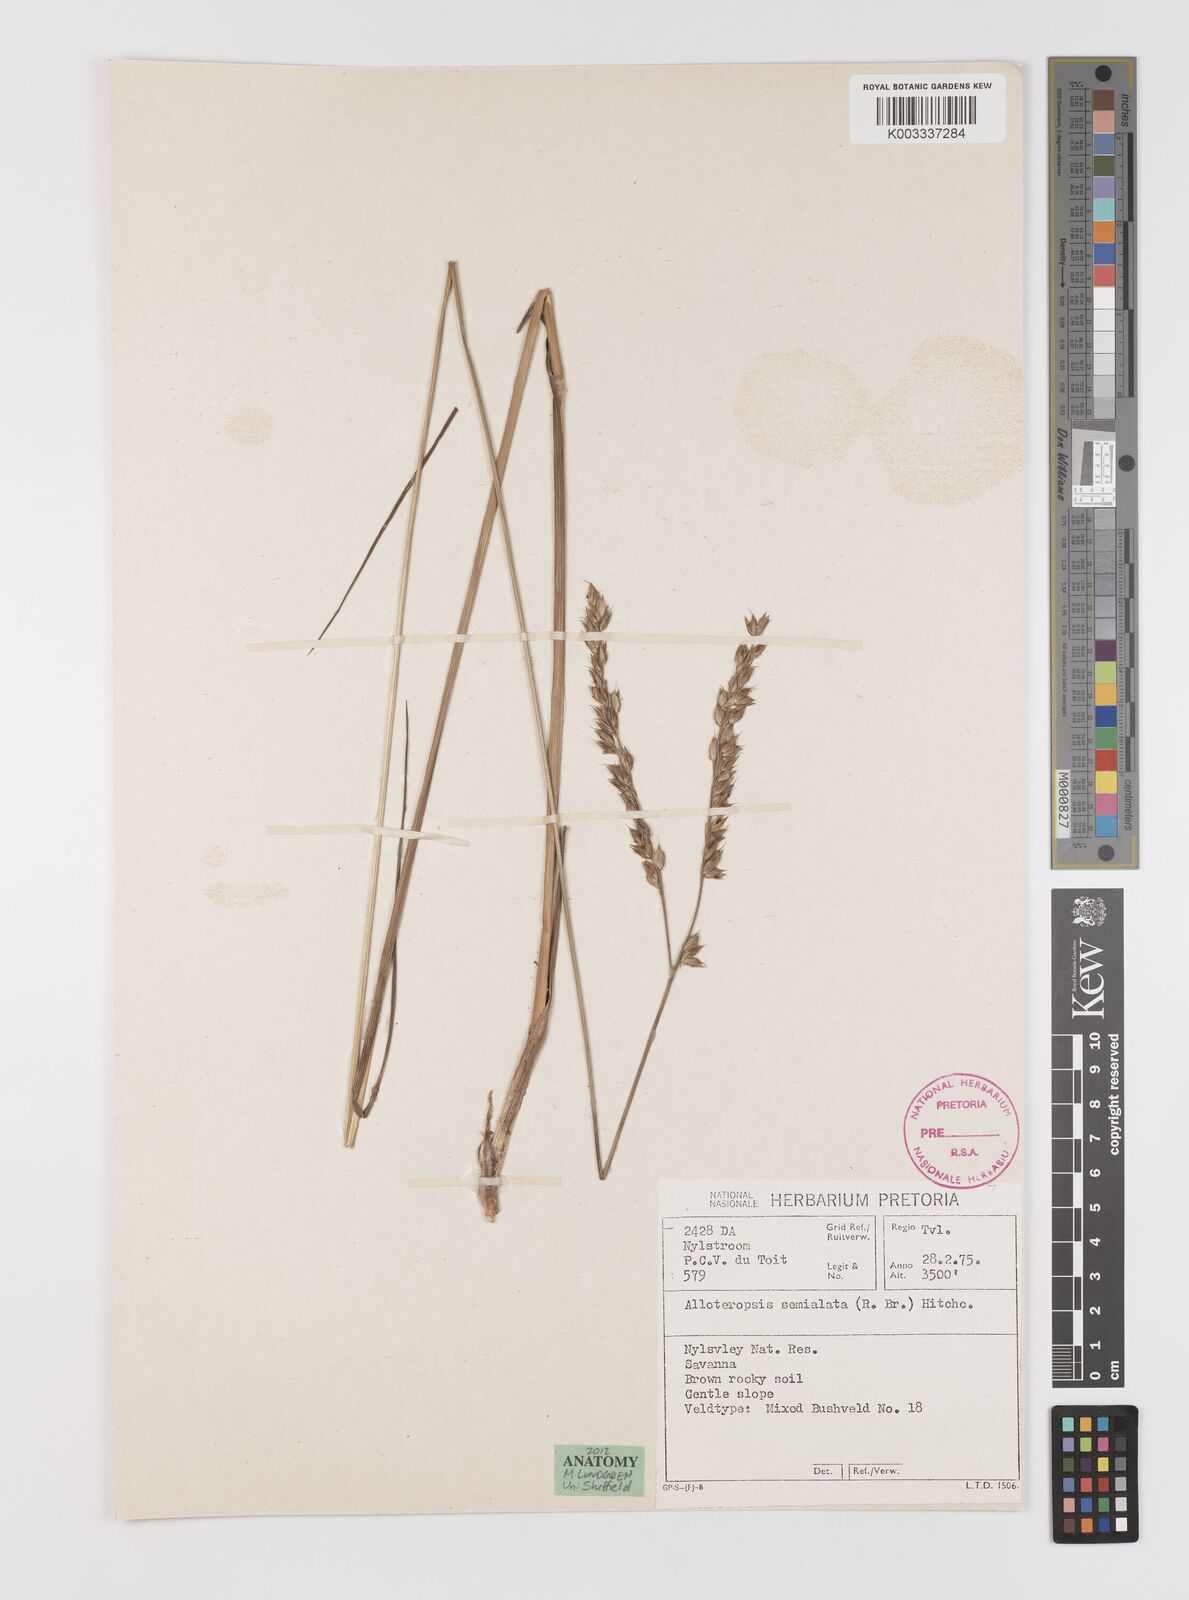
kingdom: Plantae
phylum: Tracheophyta
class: Liliopsida
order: Poales
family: Poaceae
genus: Alloteropsis
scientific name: Alloteropsis semialata
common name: Cockatoo grass
